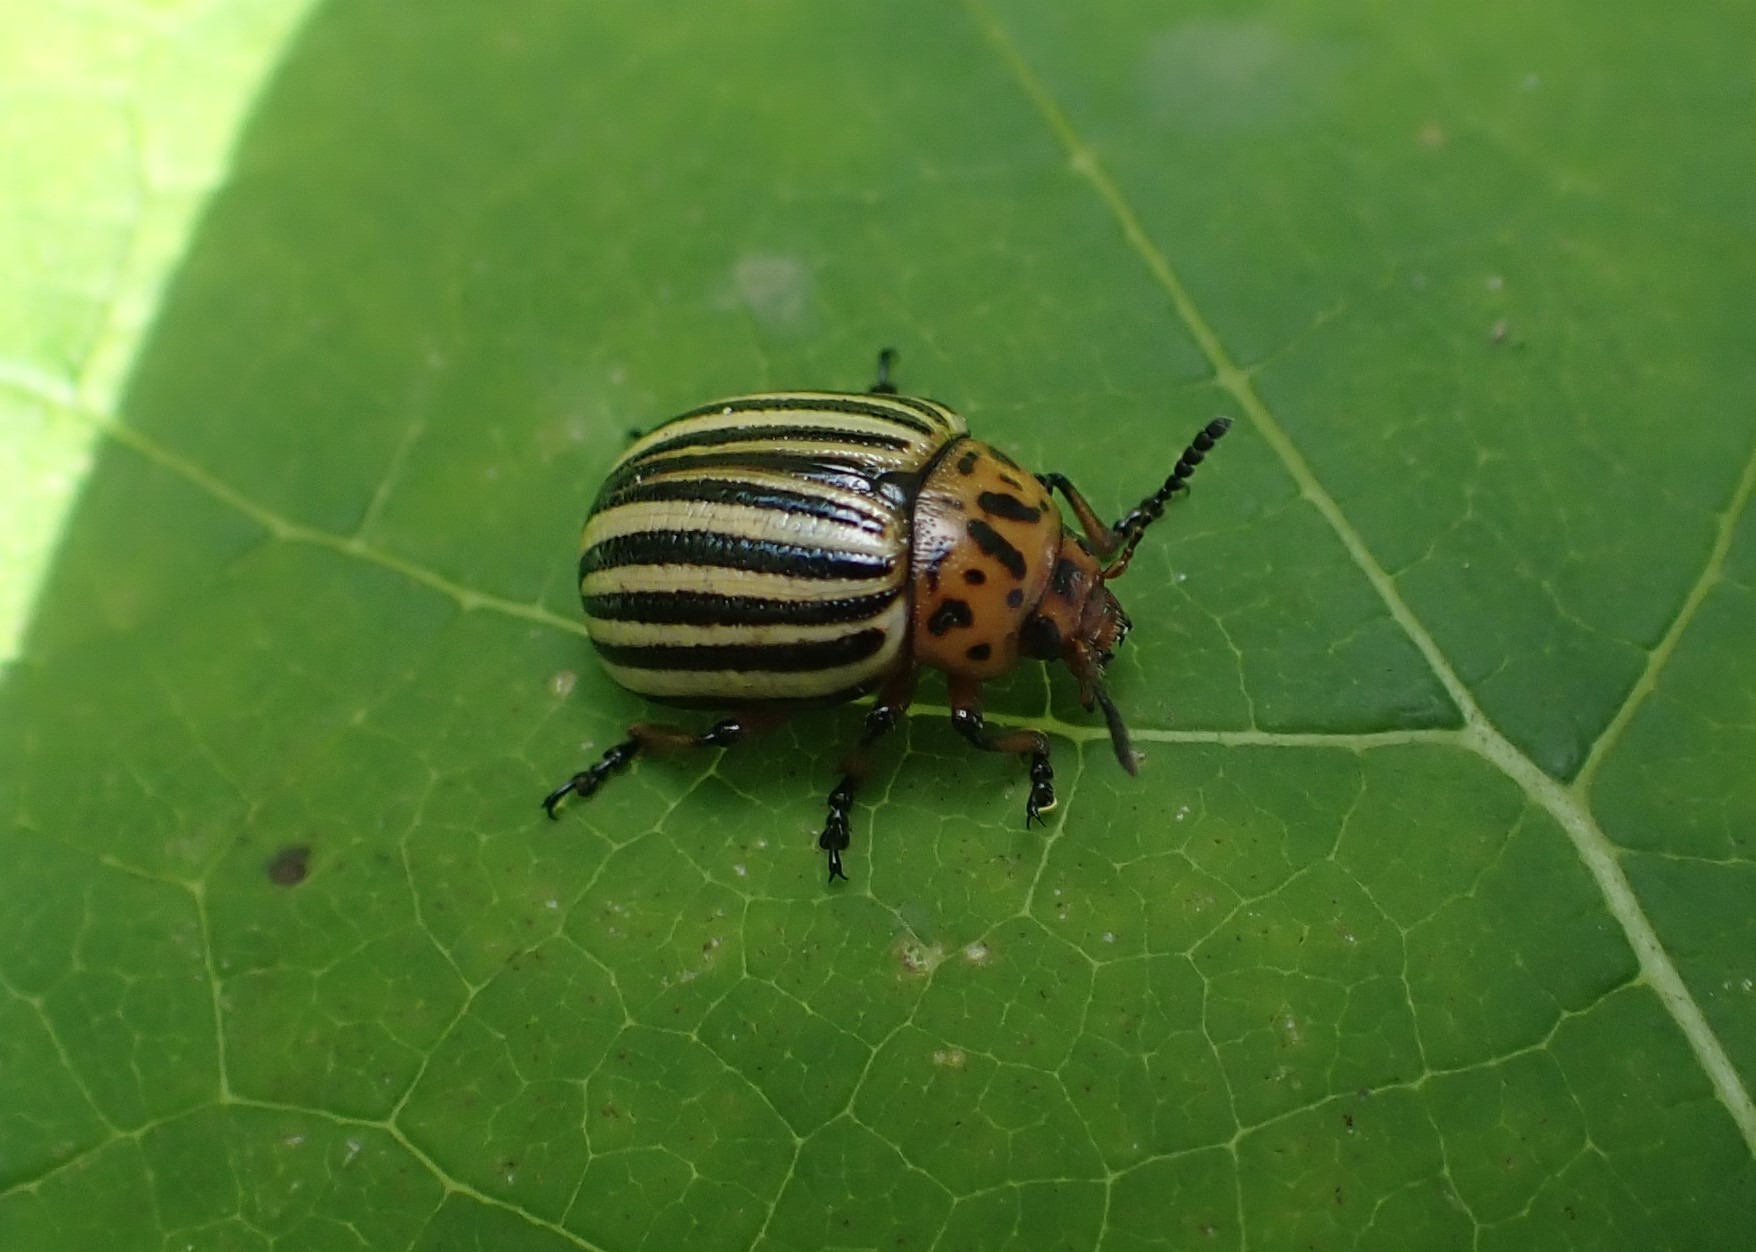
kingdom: Animalia
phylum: Arthropoda
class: Insecta
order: Coleoptera
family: Chrysomelidae
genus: Leptinotarsa
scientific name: Leptinotarsa decemlineata
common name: Coloradobille
